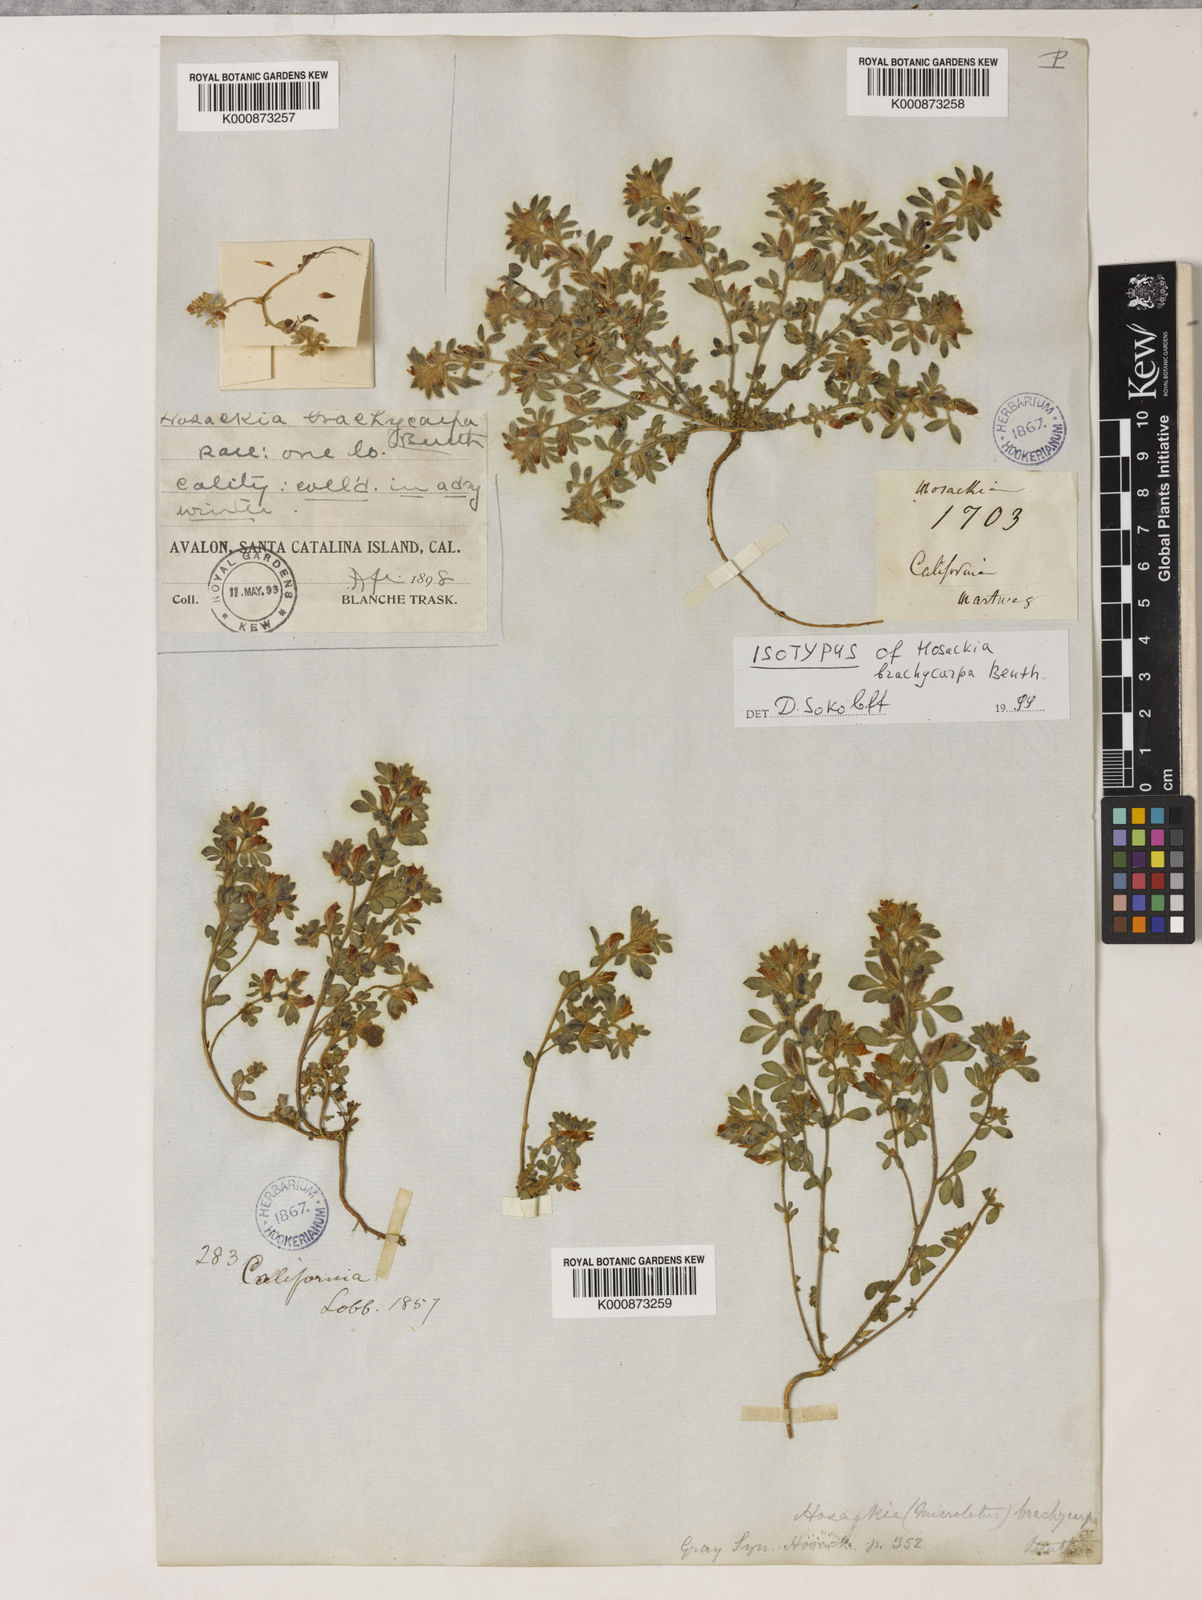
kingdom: Plantae
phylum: Tracheophyta
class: Magnoliopsida
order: Fabales
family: Fabaceae
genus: Acmispon
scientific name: Acmispon brachycarpus
